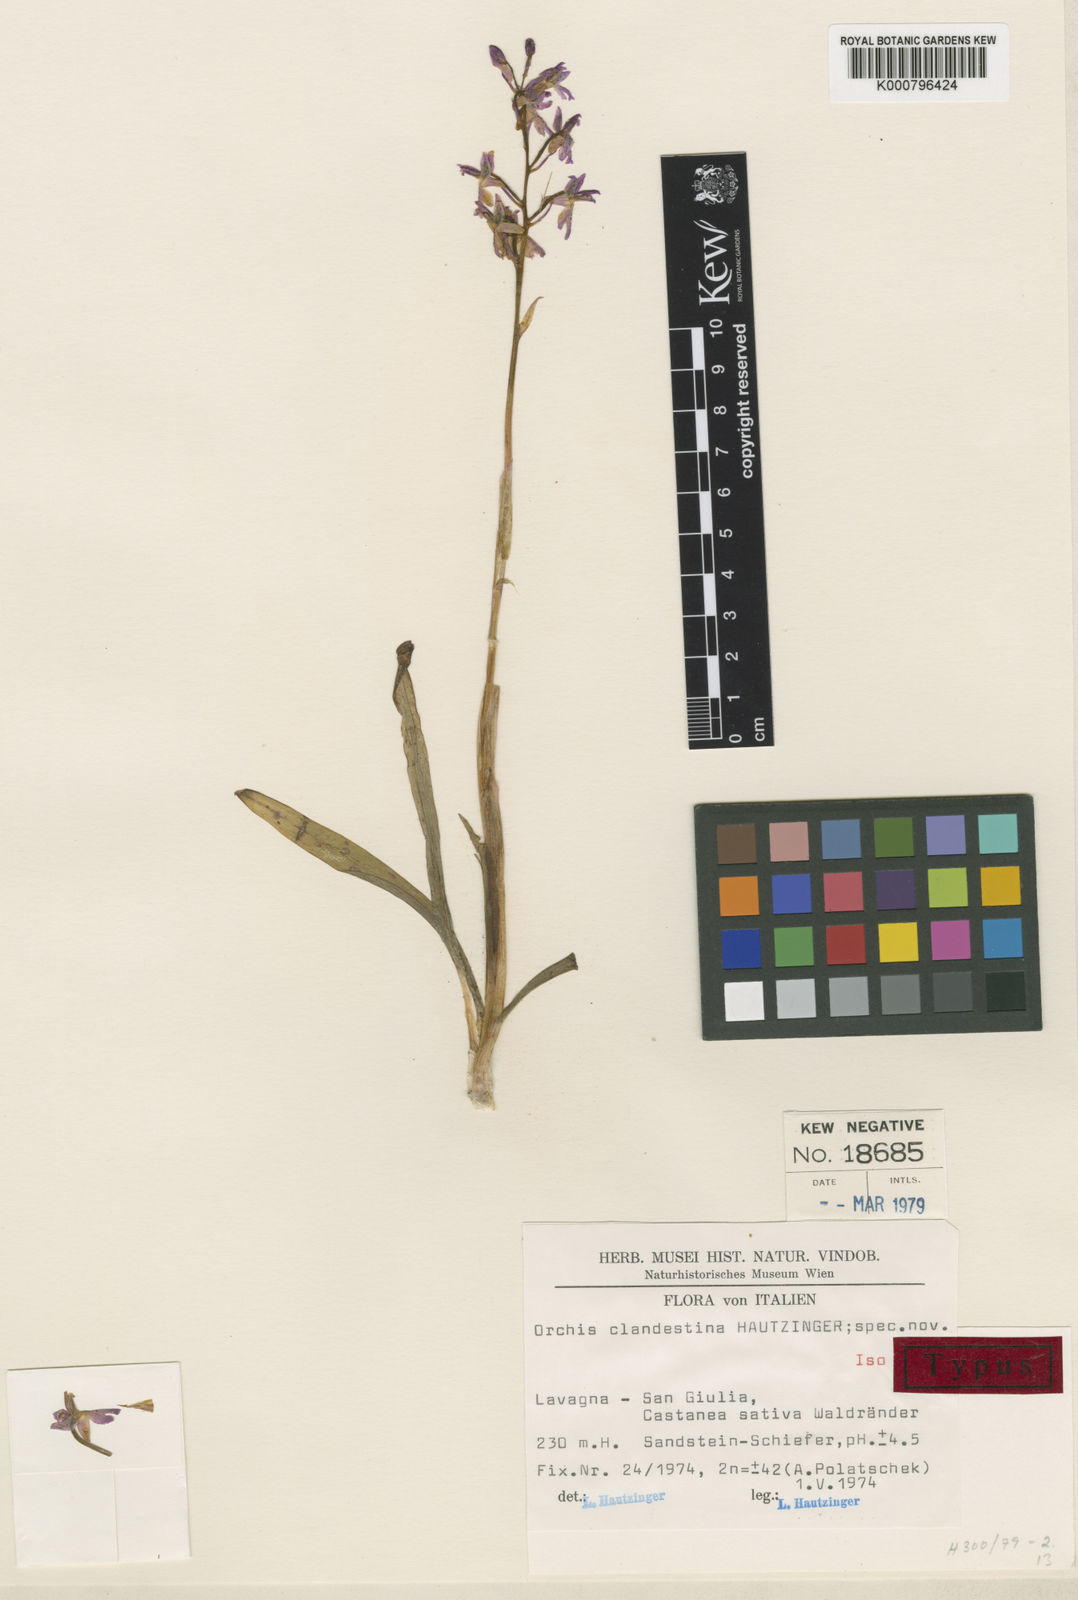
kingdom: Plantae
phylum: Tracheophyta
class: Liliopsida
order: Asparagales
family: Orchidaceae
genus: Orchis
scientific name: Orchis ligustica
